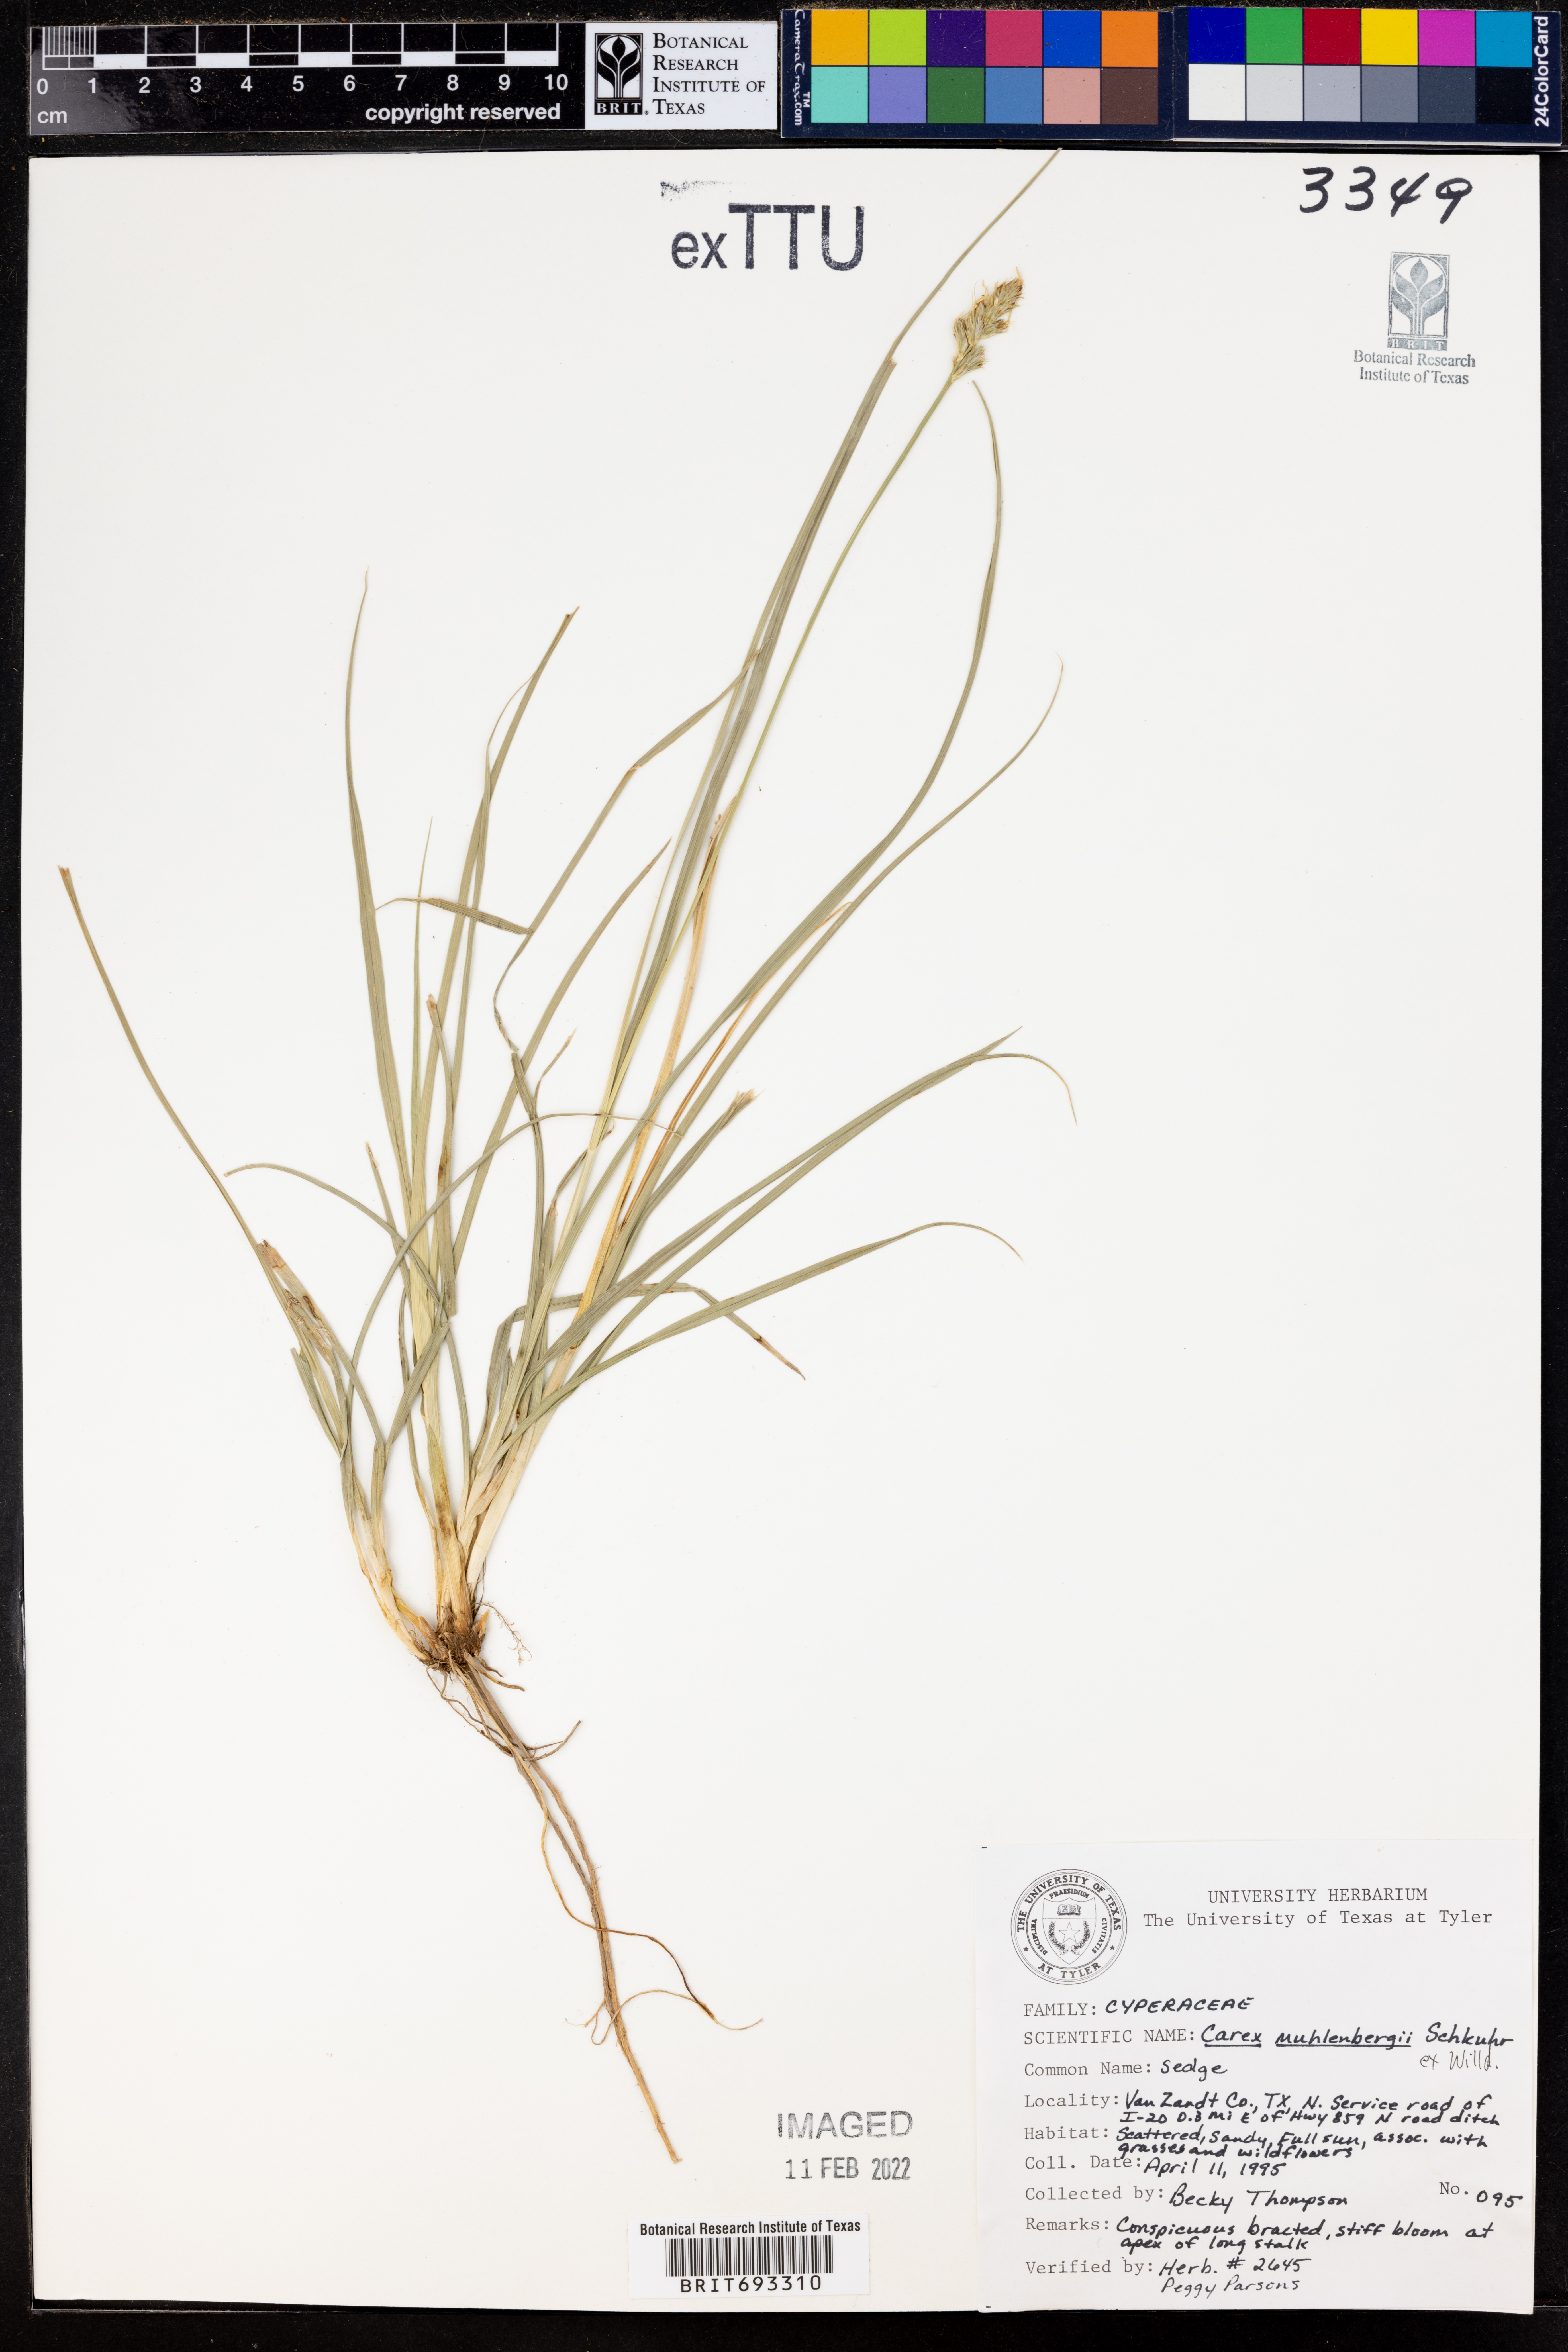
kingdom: Plantae
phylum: Tracheophyta
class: Liliopsida
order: Poales
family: Cyperaceae
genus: Carex
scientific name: Carex vulpinoidea
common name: American fox-sedge
